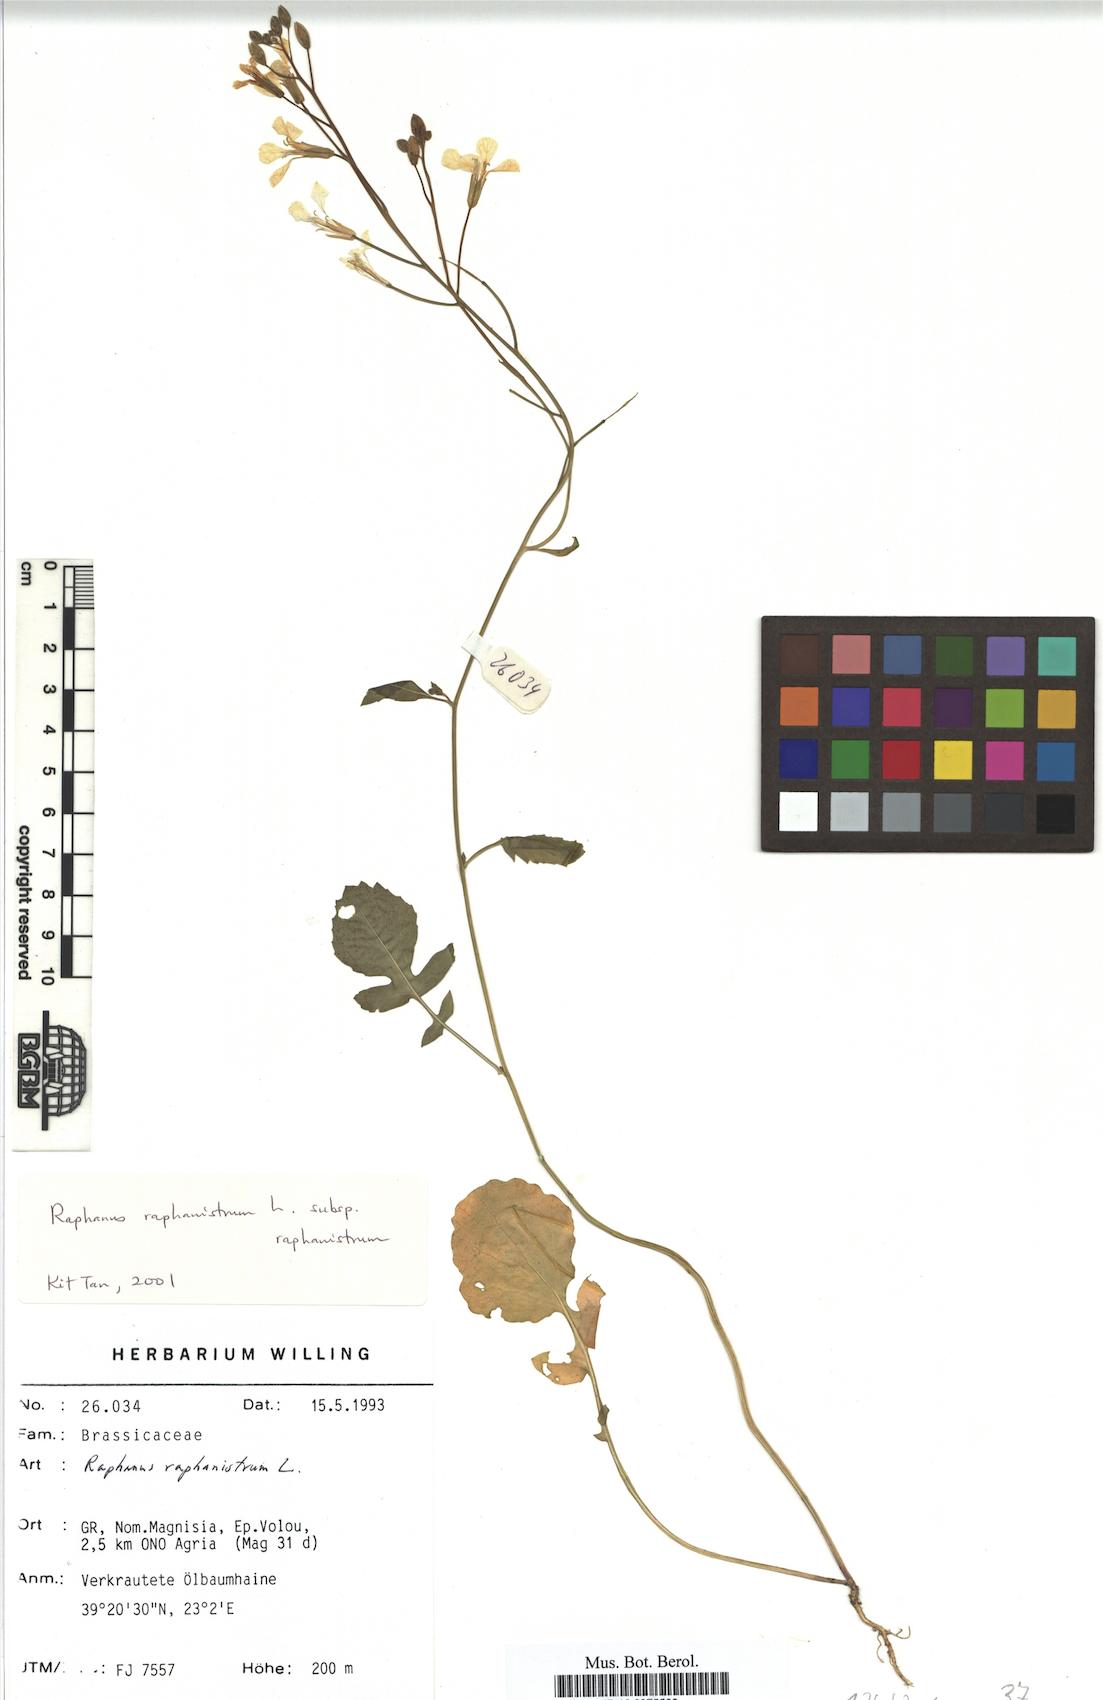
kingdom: Plantae
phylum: Tracheophyta
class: Magnoliopsida
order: Brassicales
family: Brassicaceae
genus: Raphanus
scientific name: Raphanus raphanistrum
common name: Wild radish
